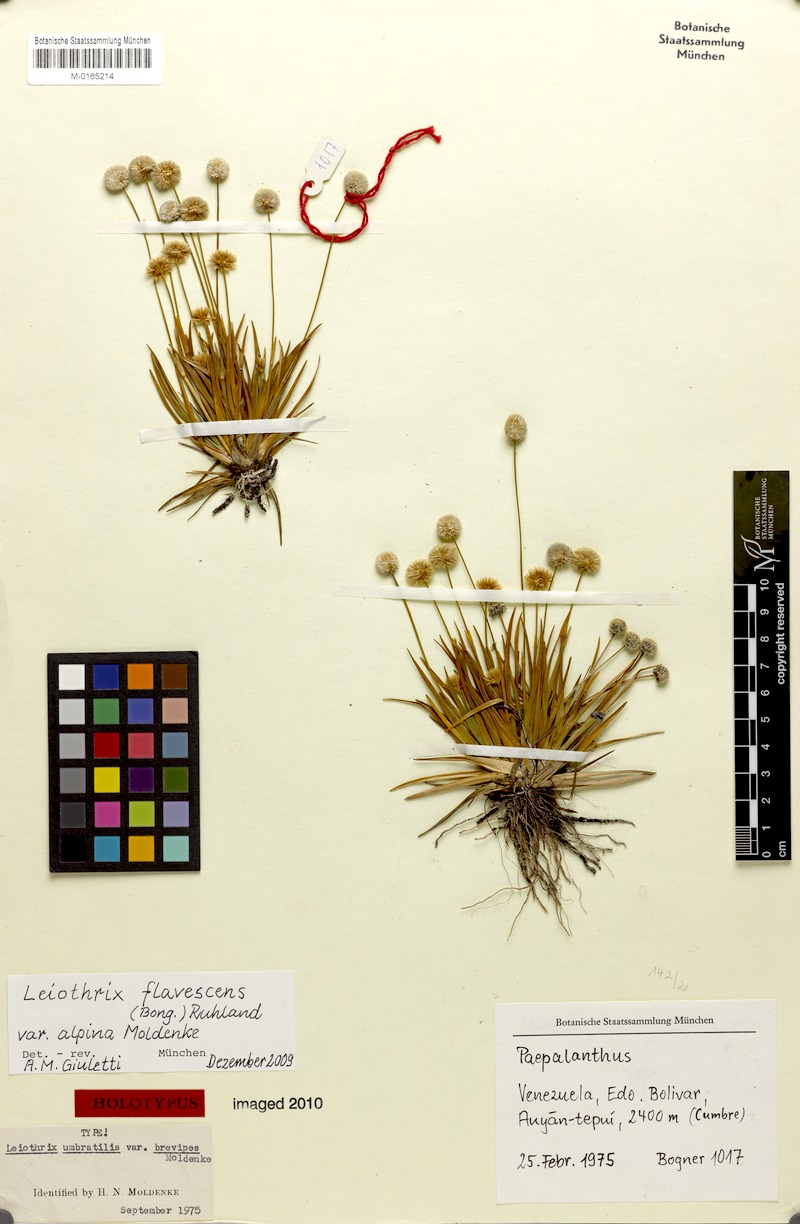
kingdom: Plantae
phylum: Tracheophyta
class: Liliopsida
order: Poales
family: Eriocaulaceae
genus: Leiothrix
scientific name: Leiothrix flavescens
